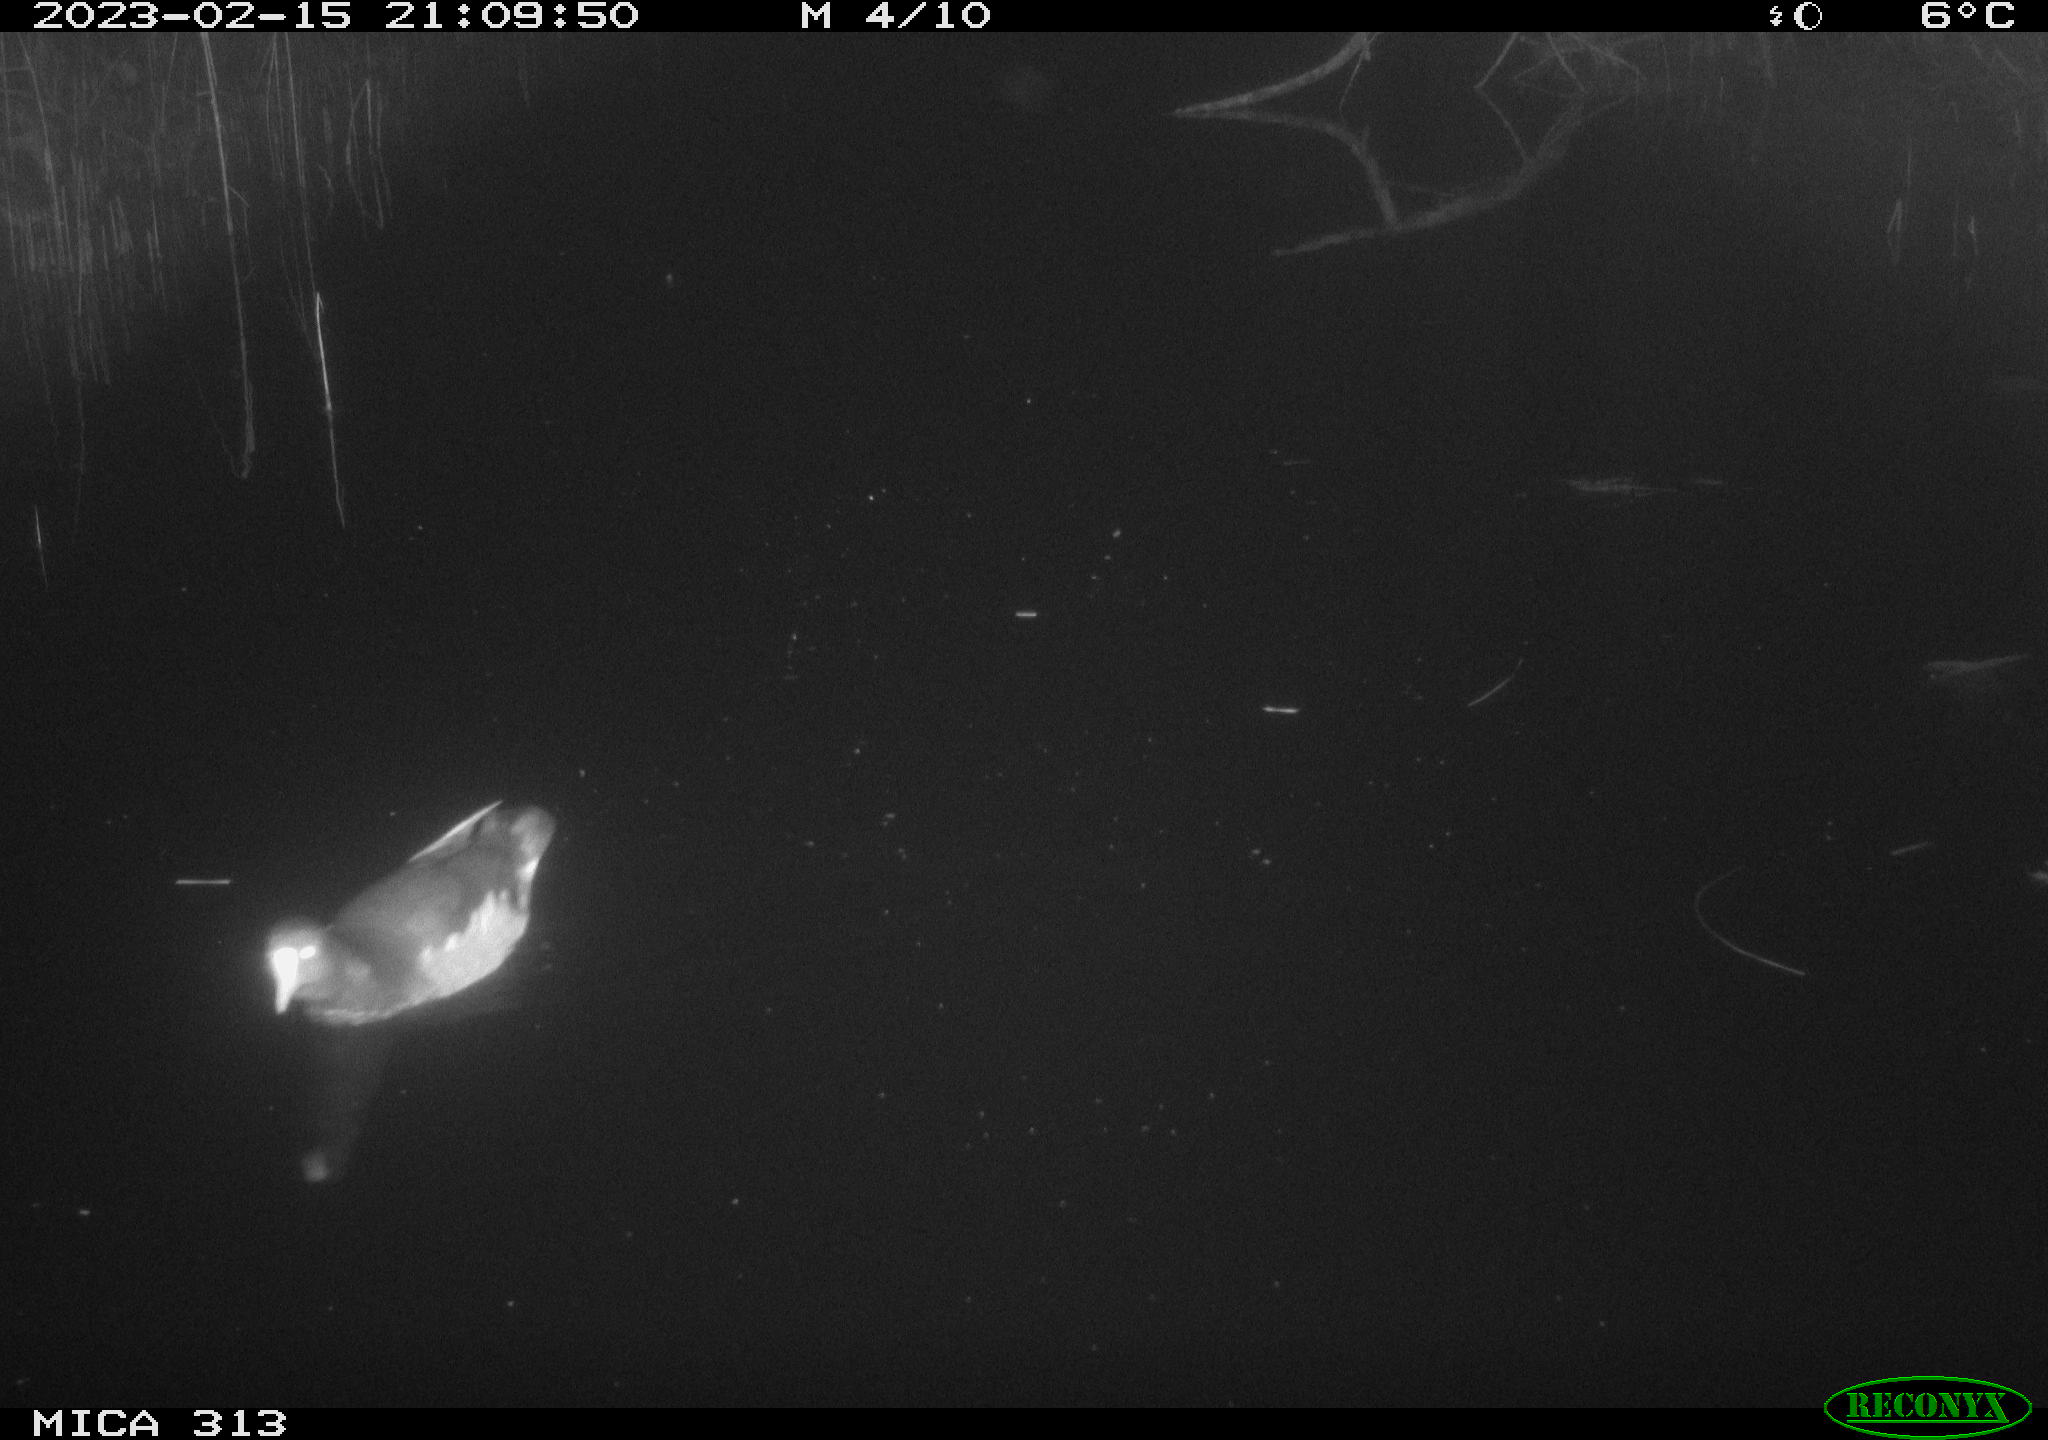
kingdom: Animalia
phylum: Chordata
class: Aves
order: Gruiformes
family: Rallidae
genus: Gallinula
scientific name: Gallinula chloropus
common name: Common moorhen
